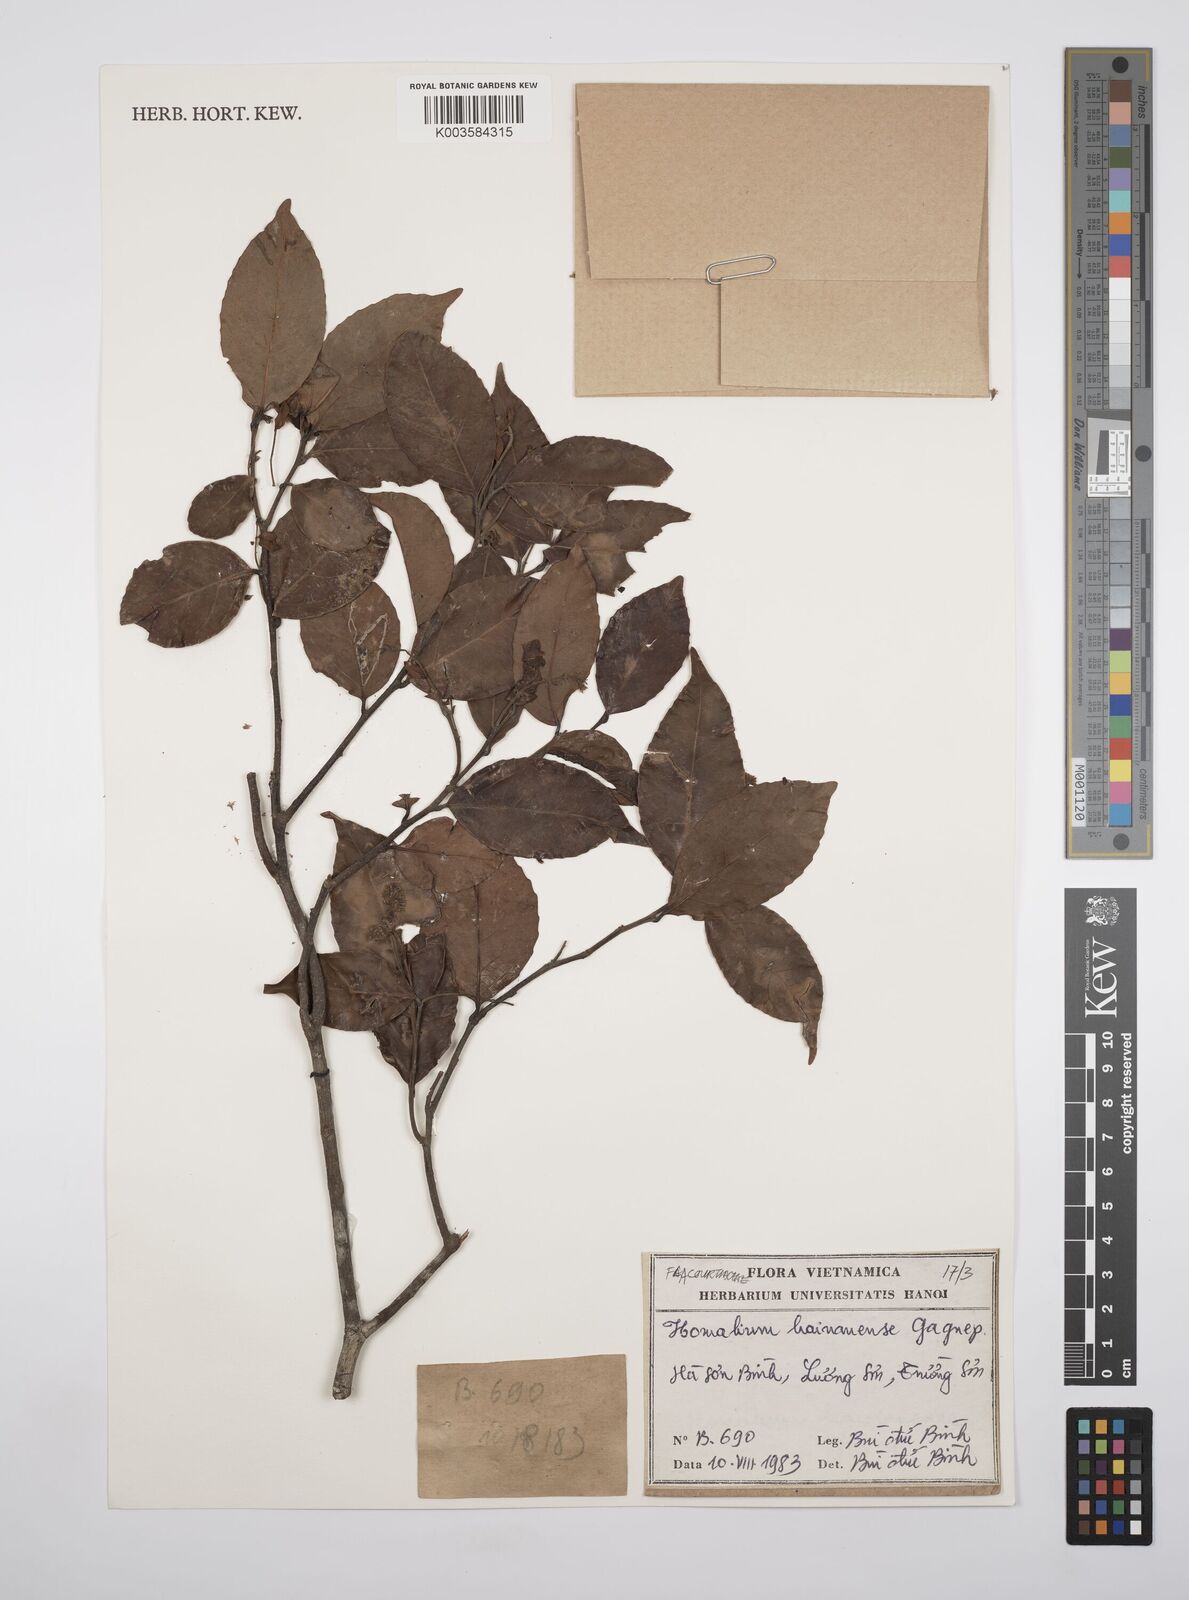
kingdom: Plantae
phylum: Tracheophyta
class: Magnoliopsida
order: Malpighiales
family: Salicaceae
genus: Homalium
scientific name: Homalium ceylanicum
